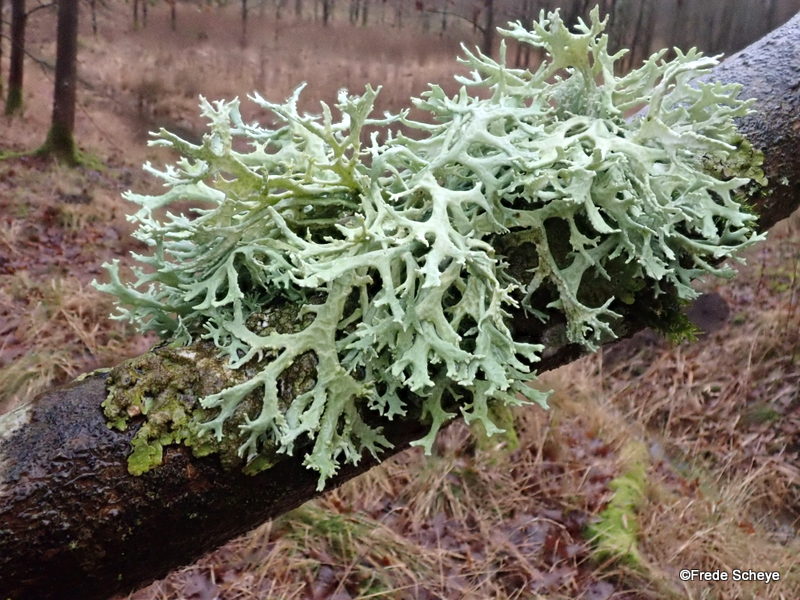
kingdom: Fungi
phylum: Ascomycota
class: Lecanoromycetes
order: Lecanorales
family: Parmeliaceae
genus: Evernia
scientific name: Evernia prunastri
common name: almindelig slåenlav
